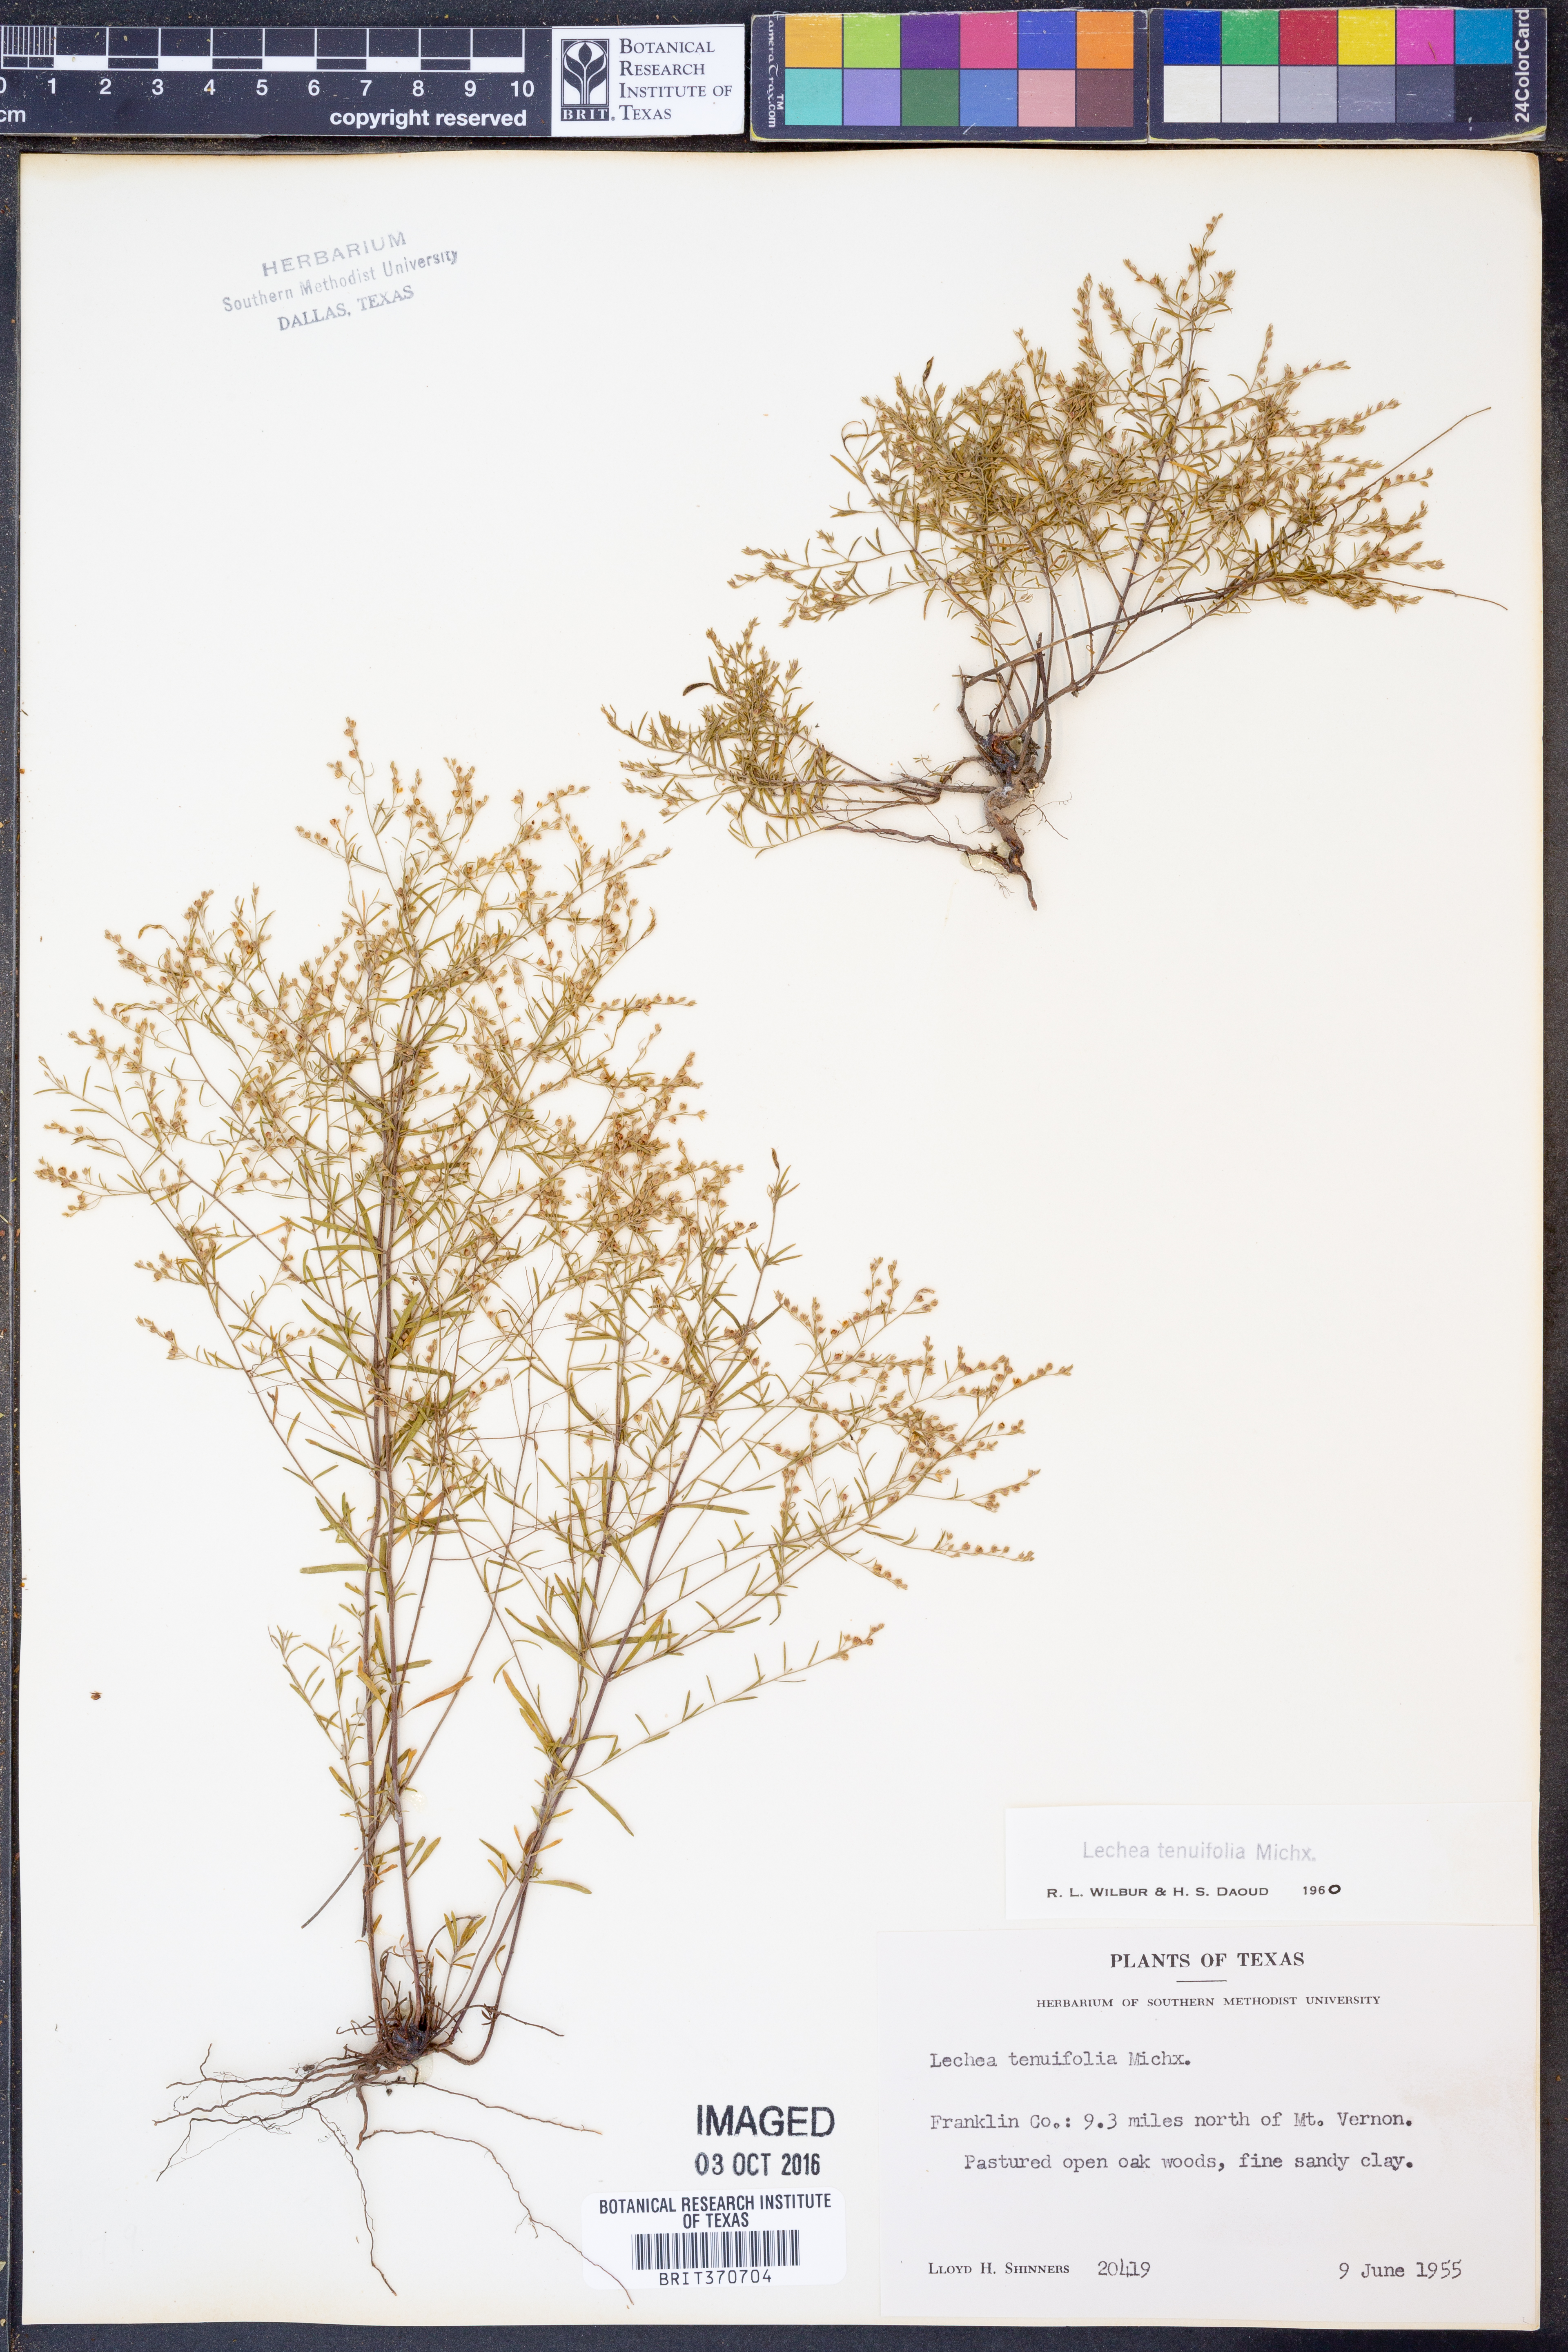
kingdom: Plantae
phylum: Tracheophyta
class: Magnoliopsida
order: Malvales
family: Cistaceae
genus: Lechea
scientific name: Lechea tenuifolia
